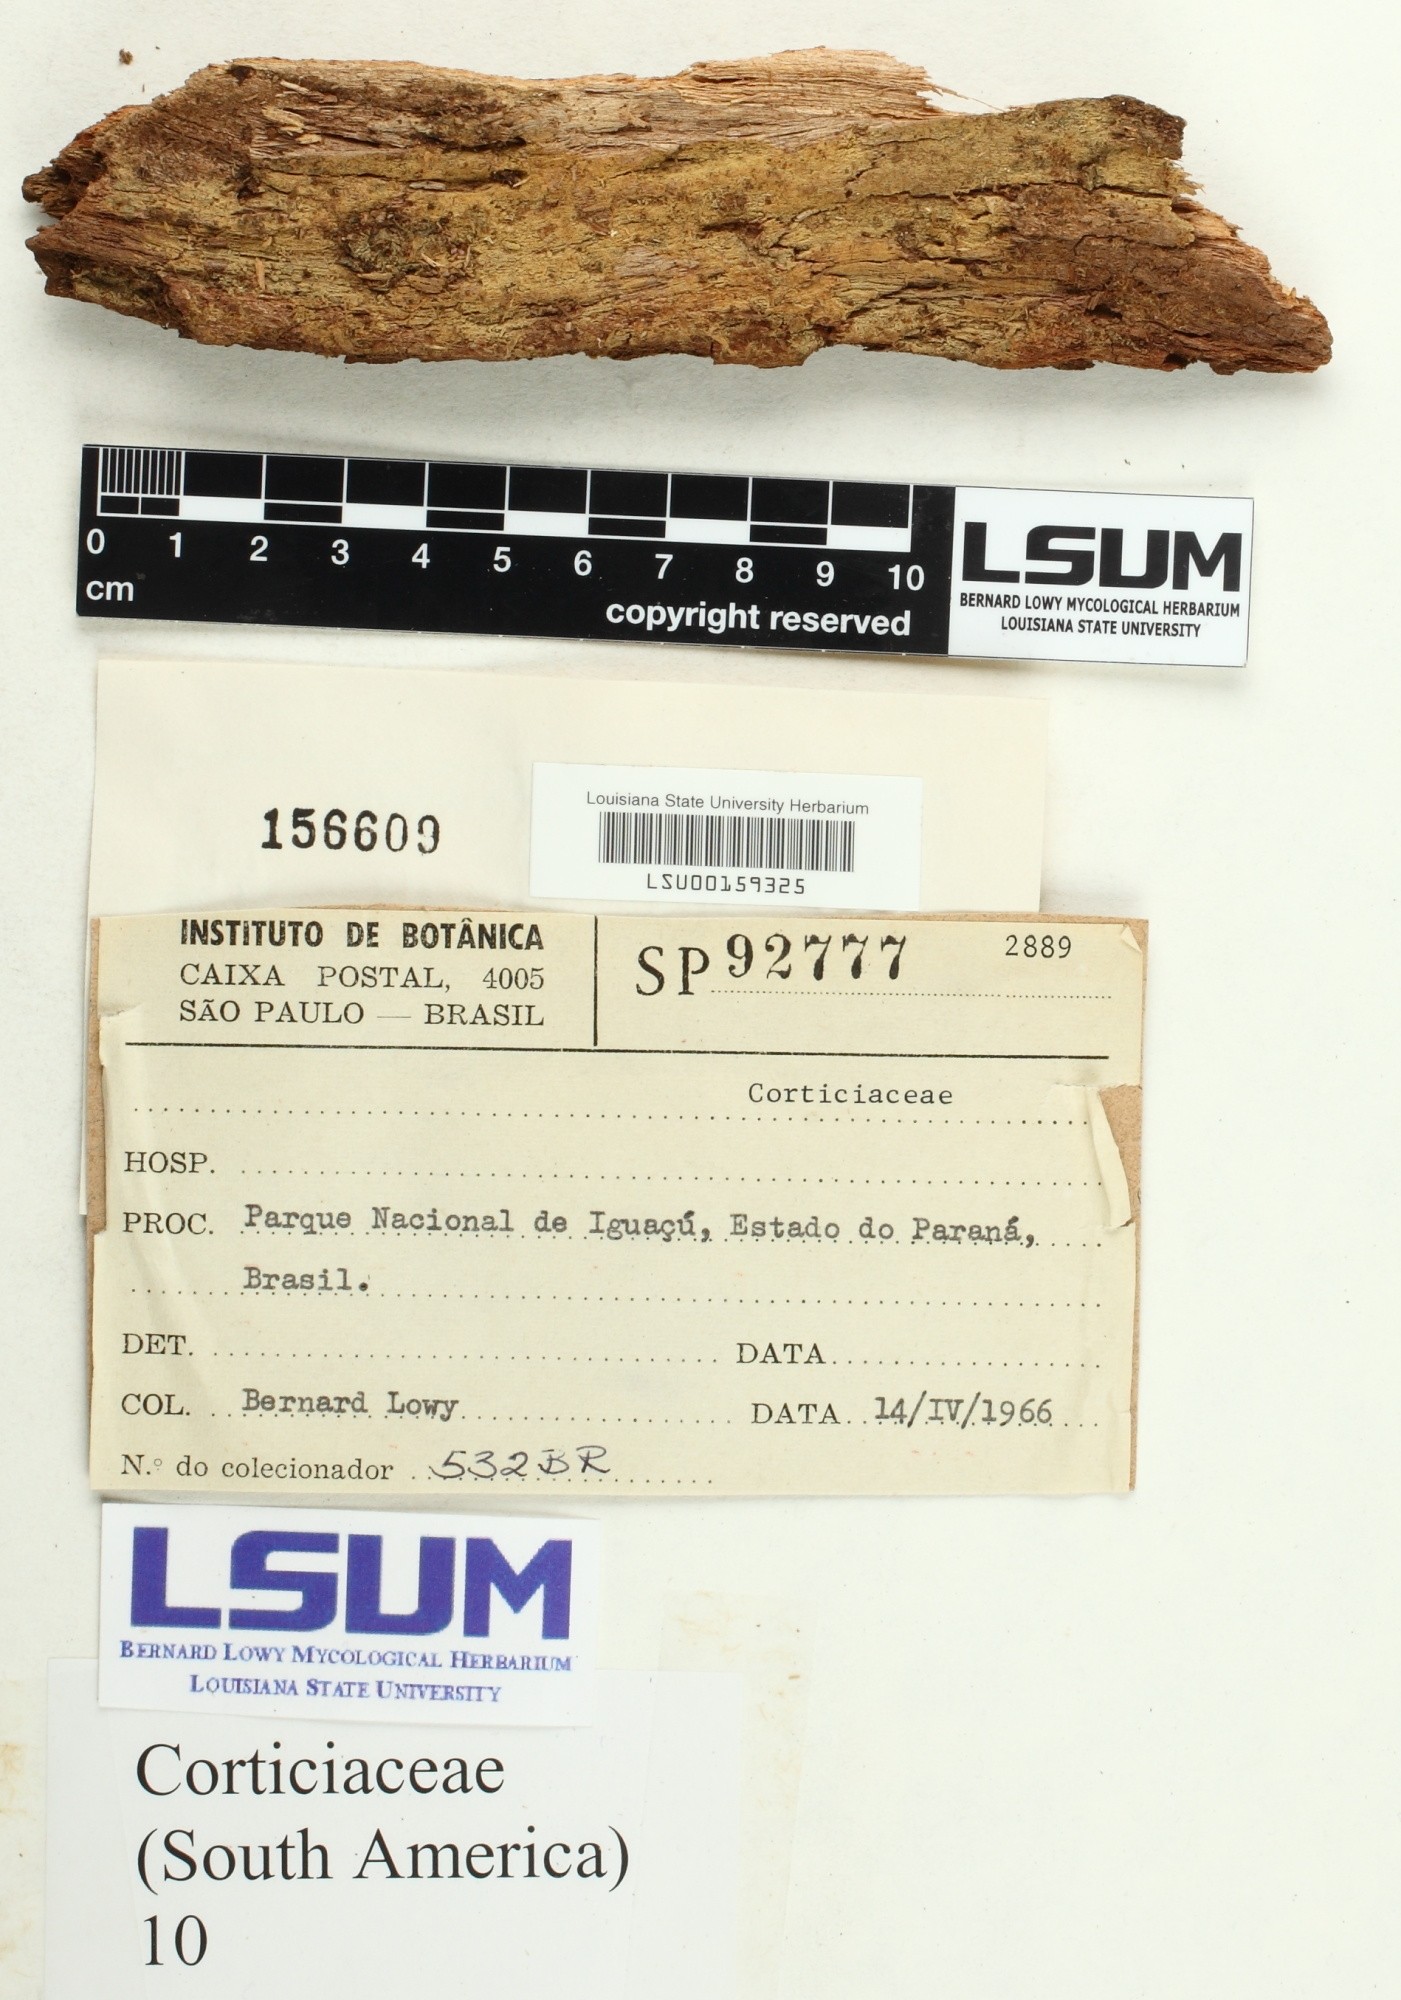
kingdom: Fungi
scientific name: Fungi
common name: Fungi
